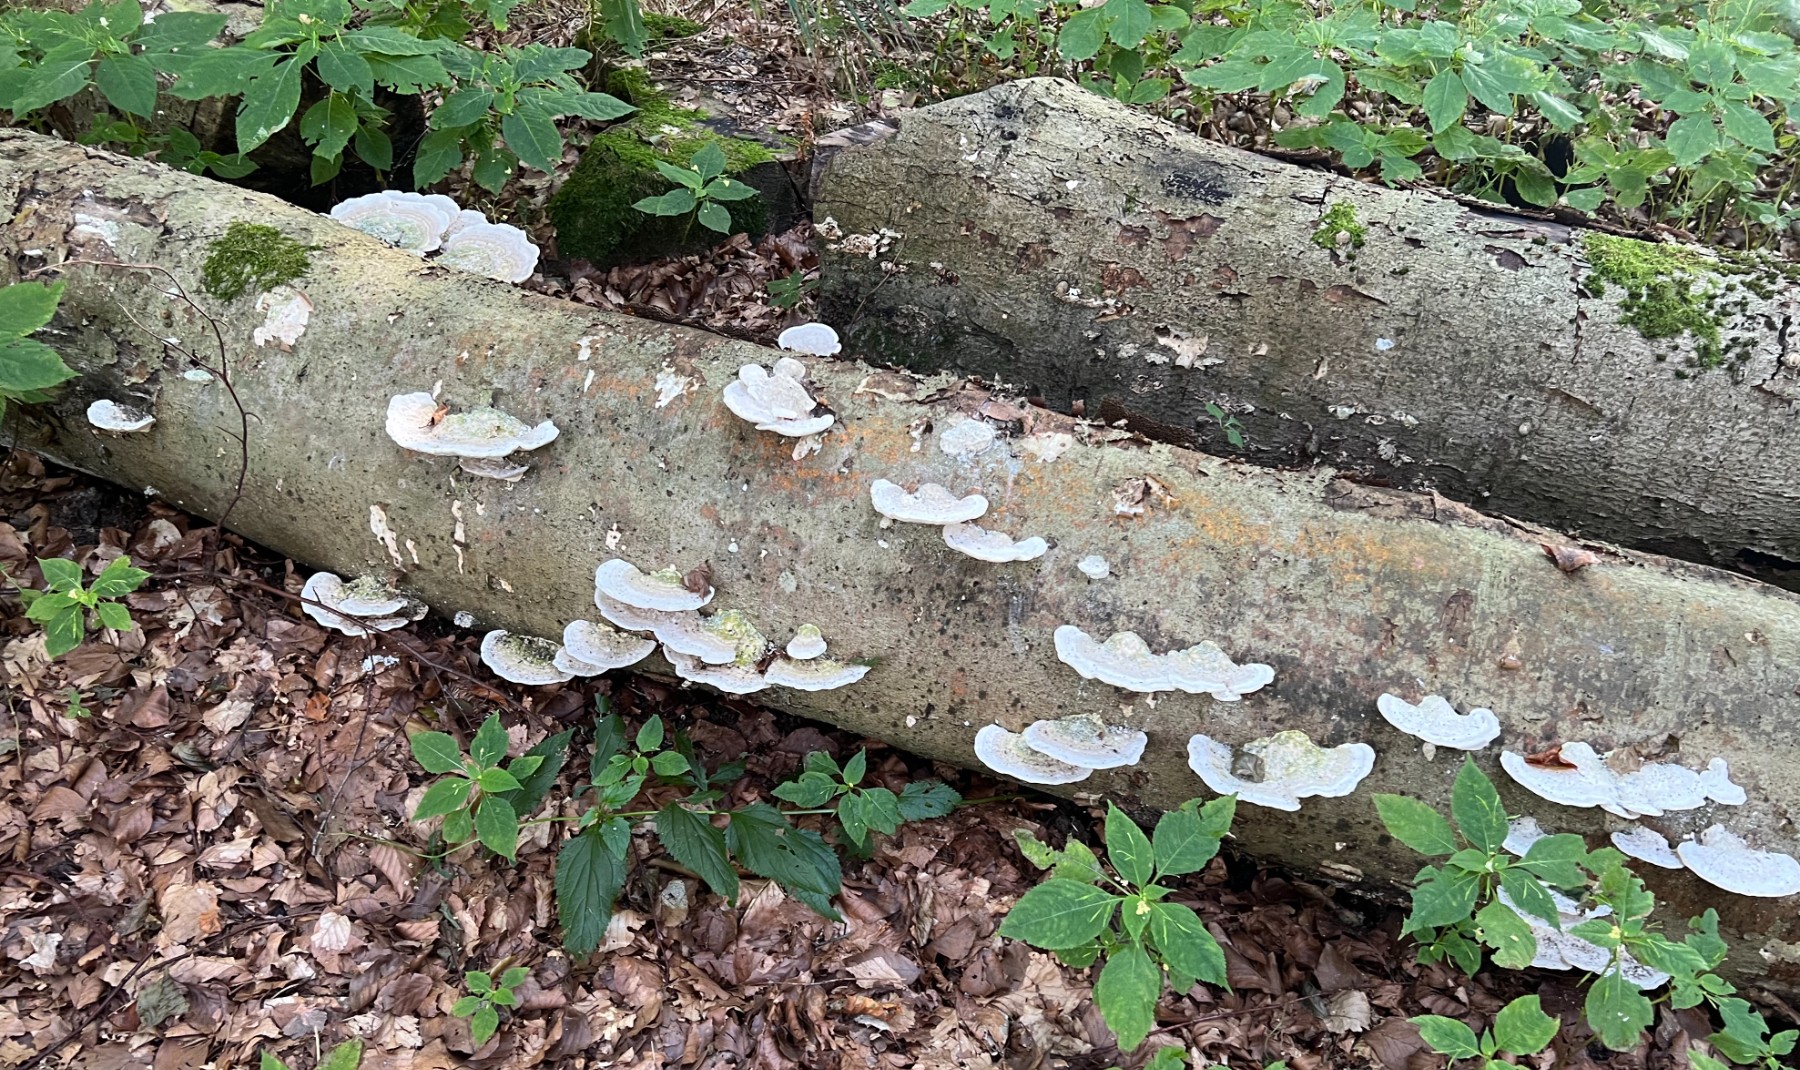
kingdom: Fungi
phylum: Basidiomycota
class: Agaricomycetes
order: Polyporales
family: Polyporaceae
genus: Trametes
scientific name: Trametes gibbosa
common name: puklet læderporesvamp
